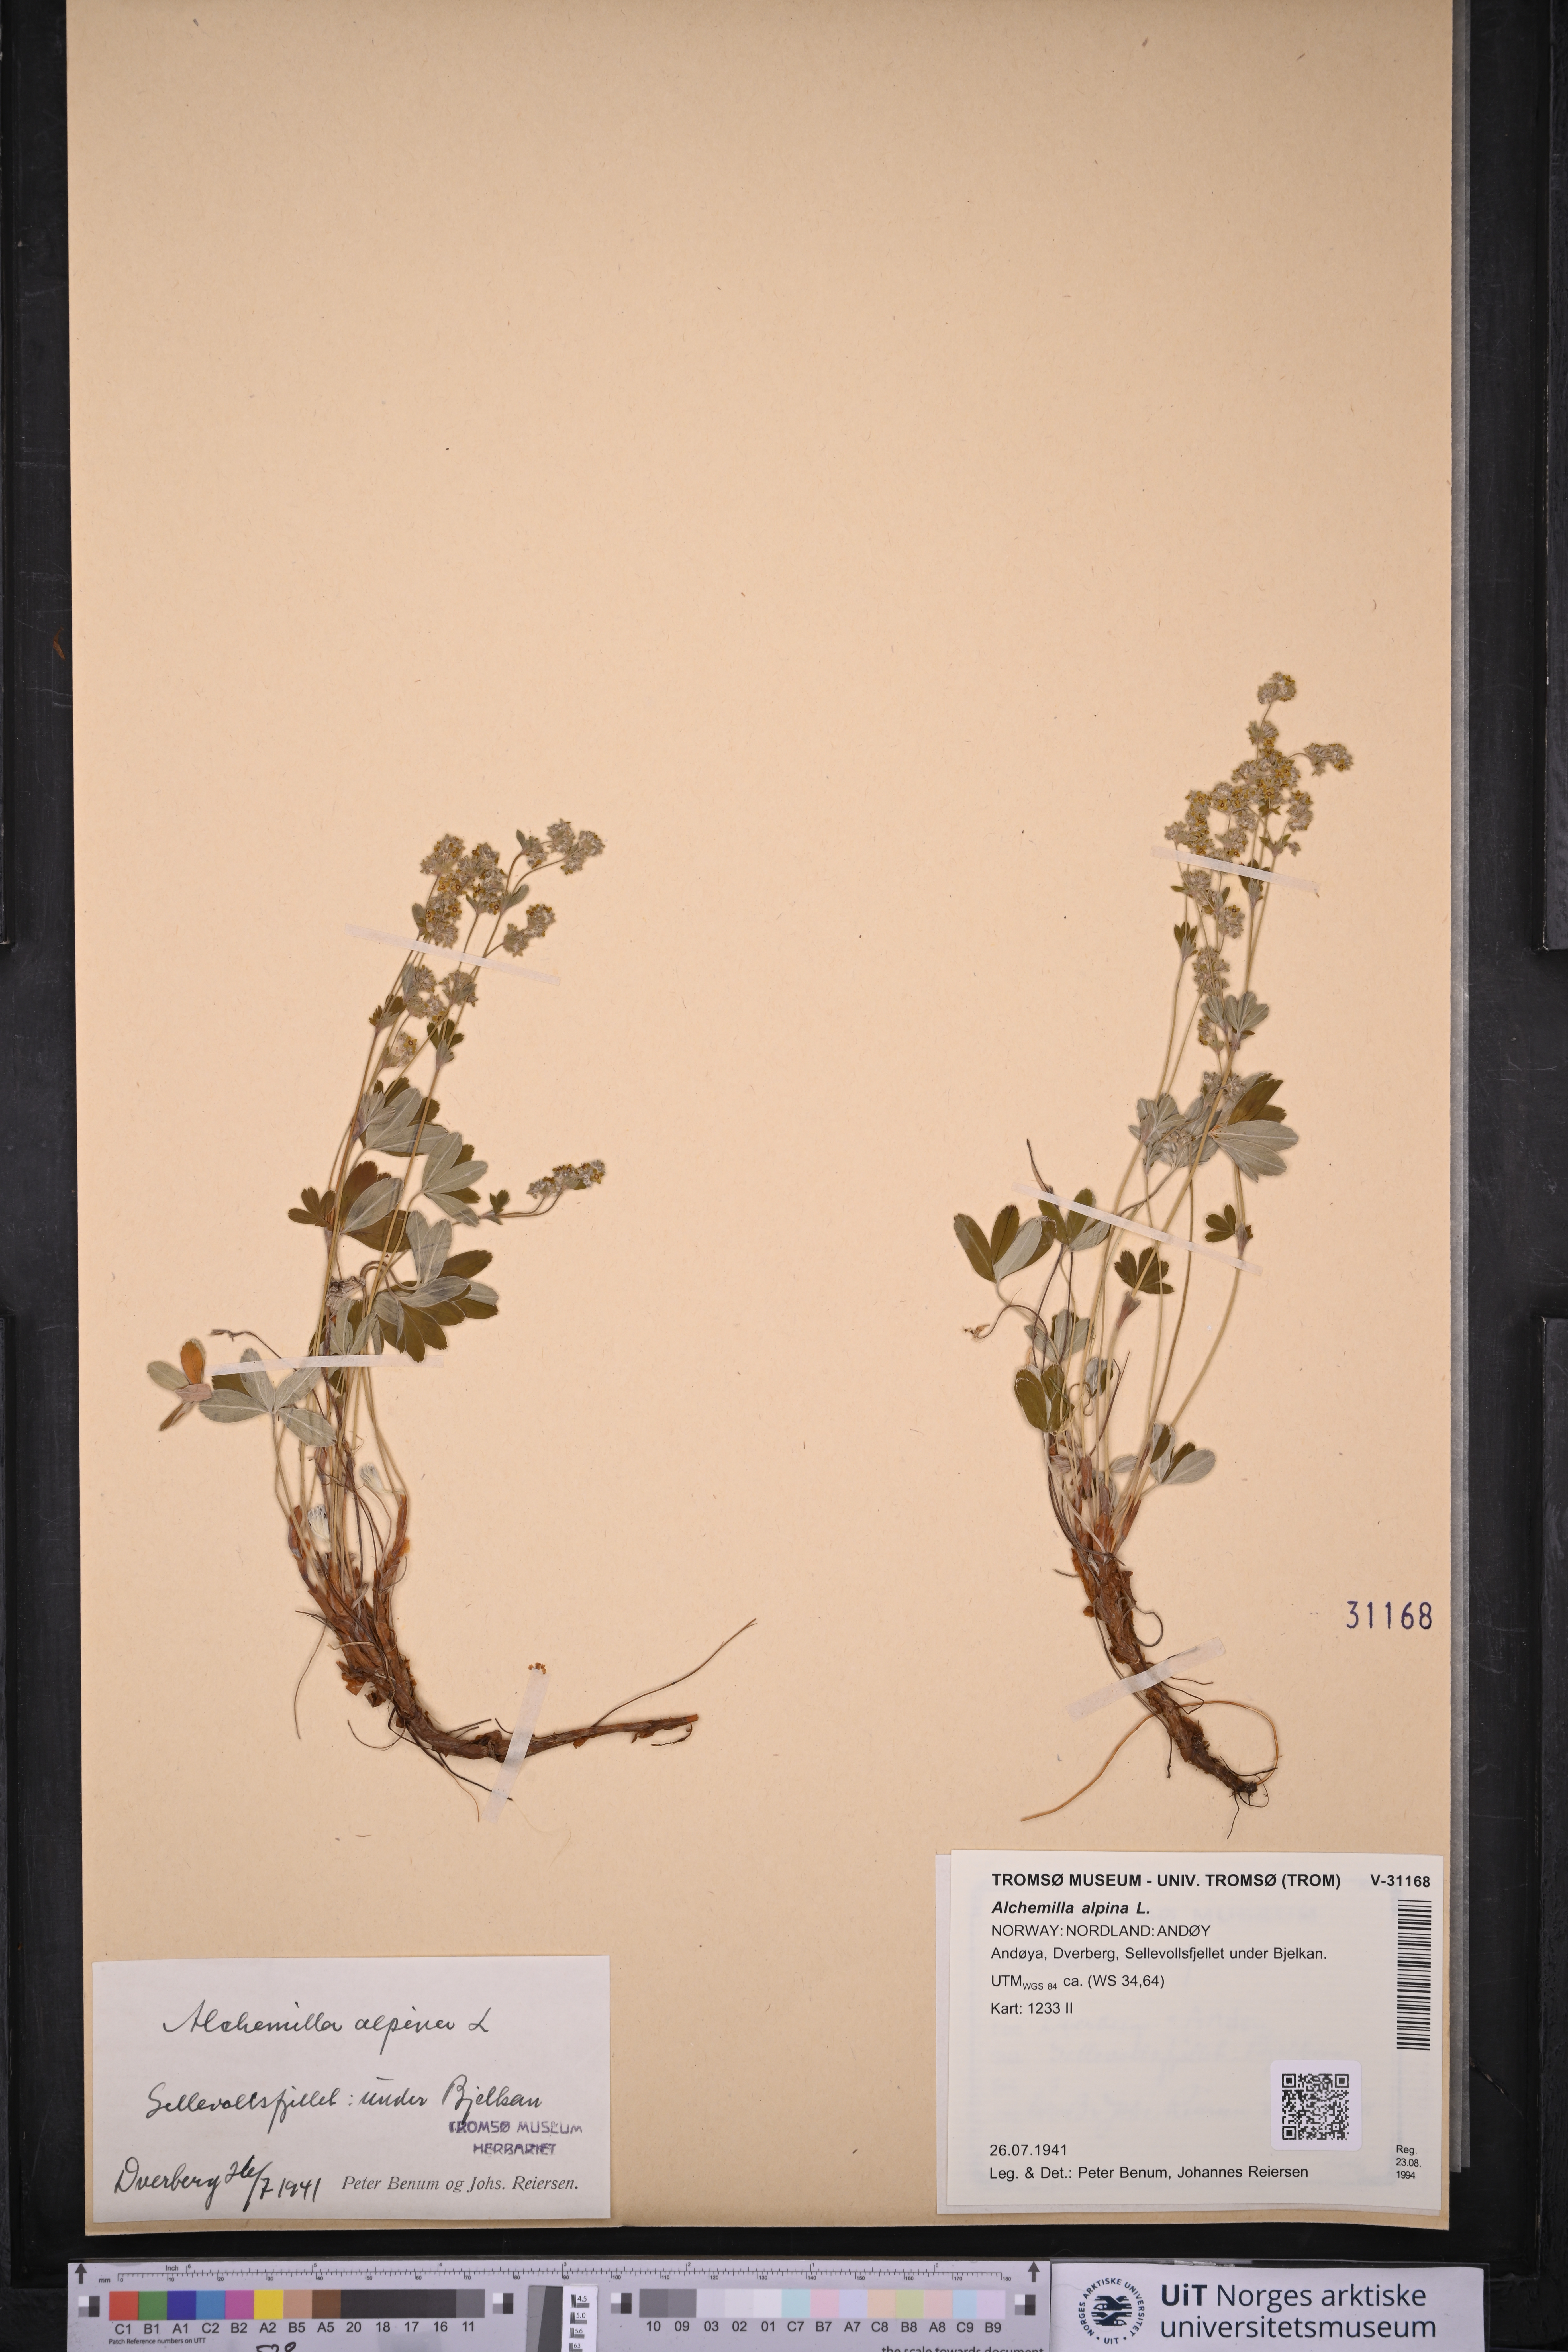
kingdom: Plantae
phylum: Tracheophyta
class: Magnoliopsida
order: Rosales
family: Rosaceae
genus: Alchemilla
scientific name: Alchemilla alpina
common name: Alpine lady's-mantle
